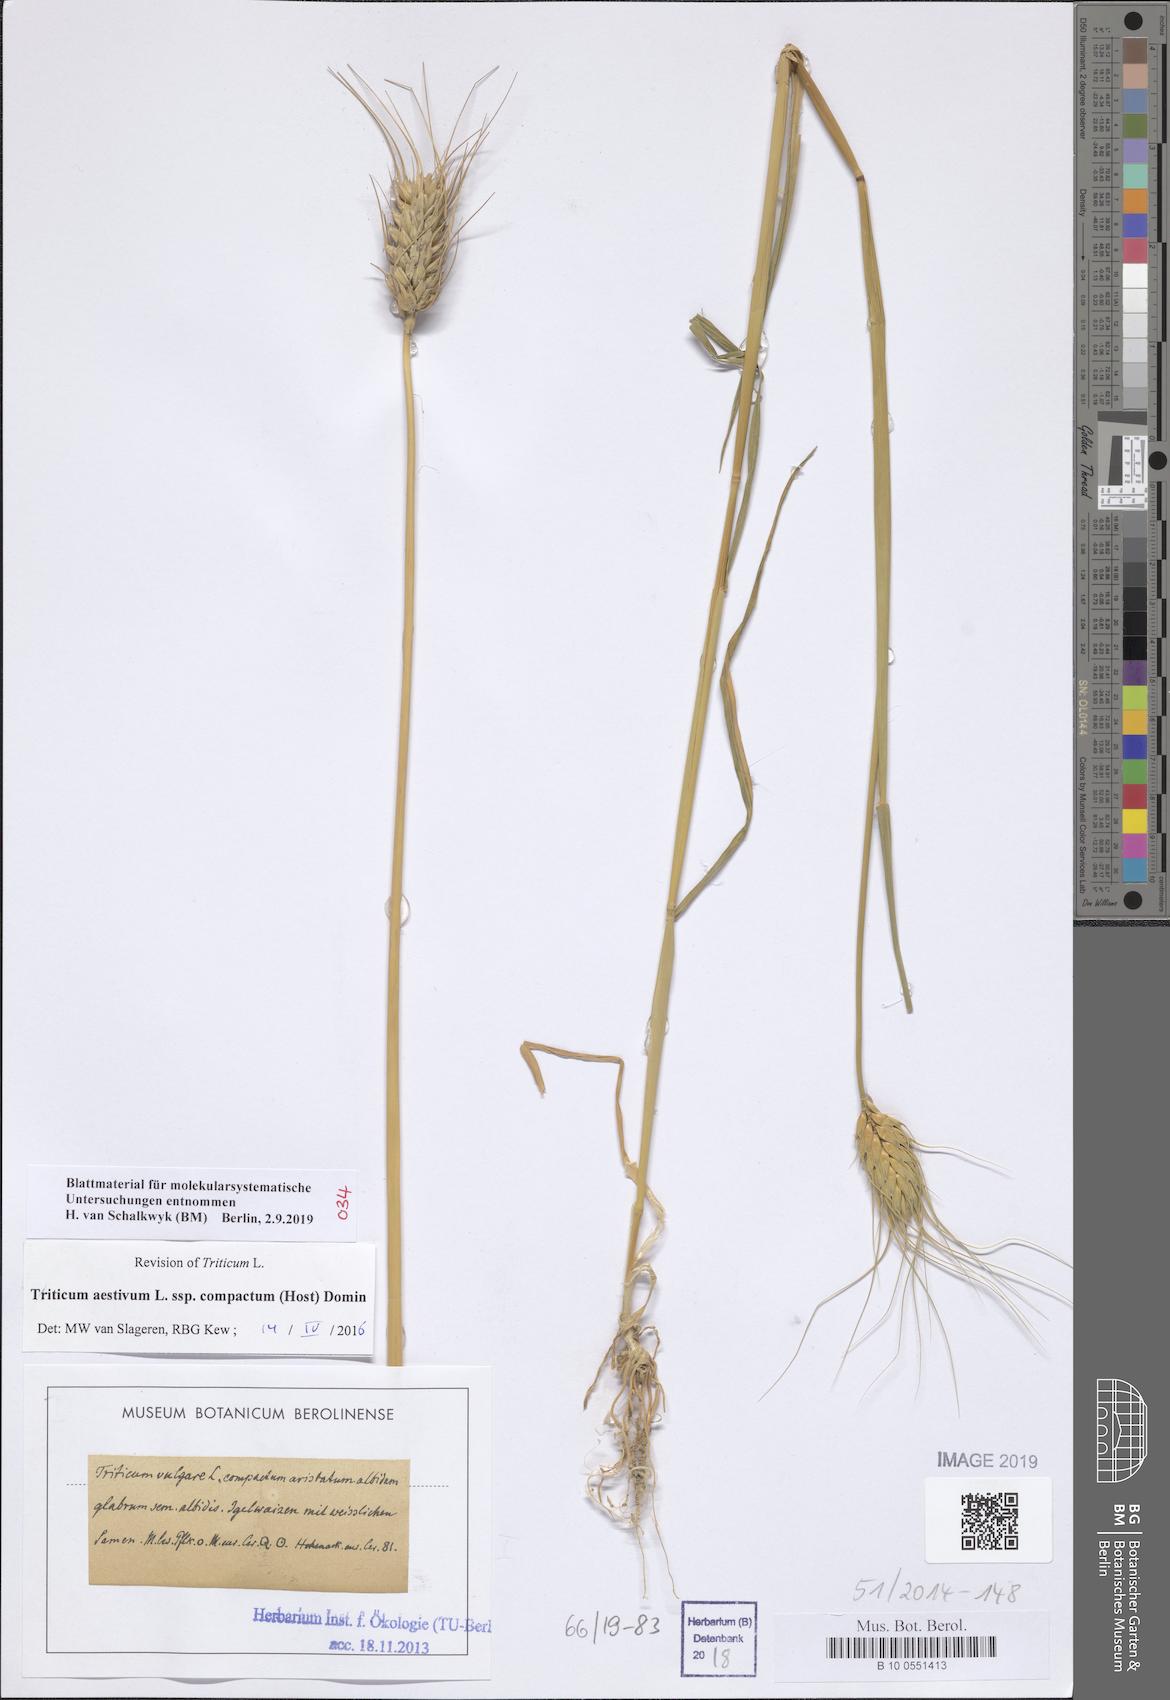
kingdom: Plantae
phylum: Tracheophyta
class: Liliopsida
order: Poales
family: Poaceae
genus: Triticum
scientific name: Triticum aestivum
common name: Common wheat
